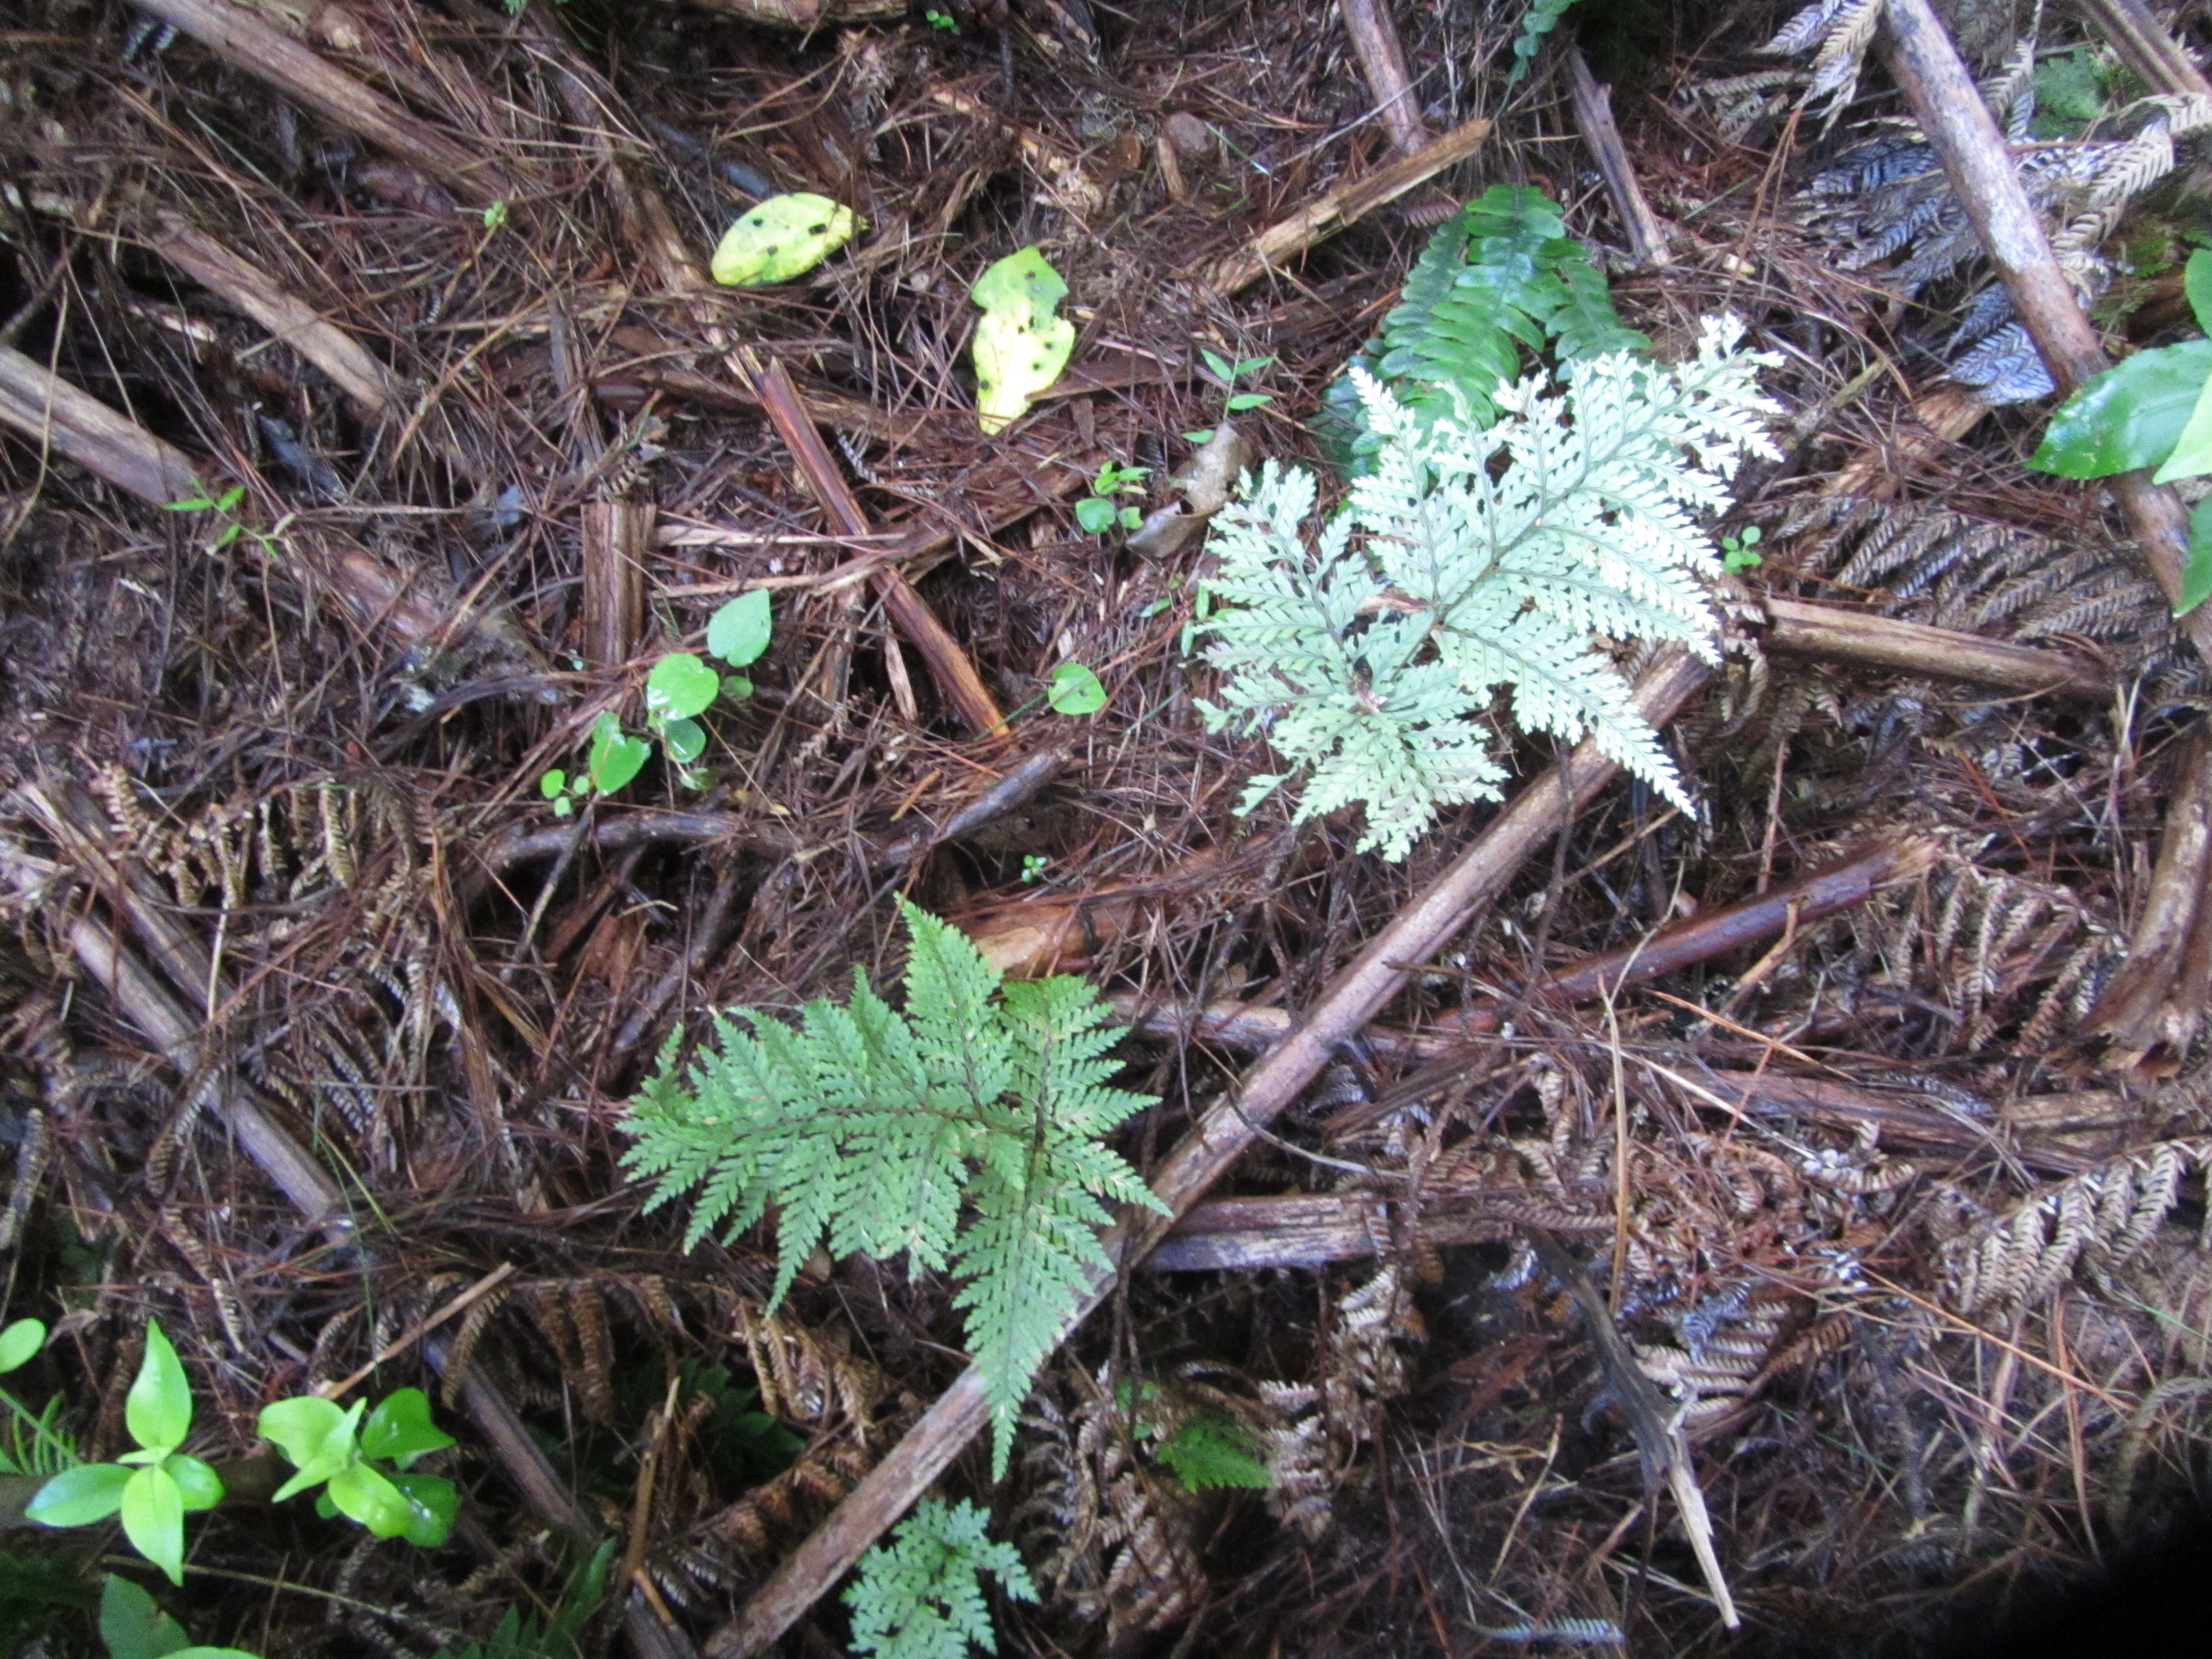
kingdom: Plantae
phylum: Tracheophyta
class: Polypodiopsida
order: Polypodiales
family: Dryopteridaceae
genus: Parapolystichum
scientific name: Parapolystichum glabellum
